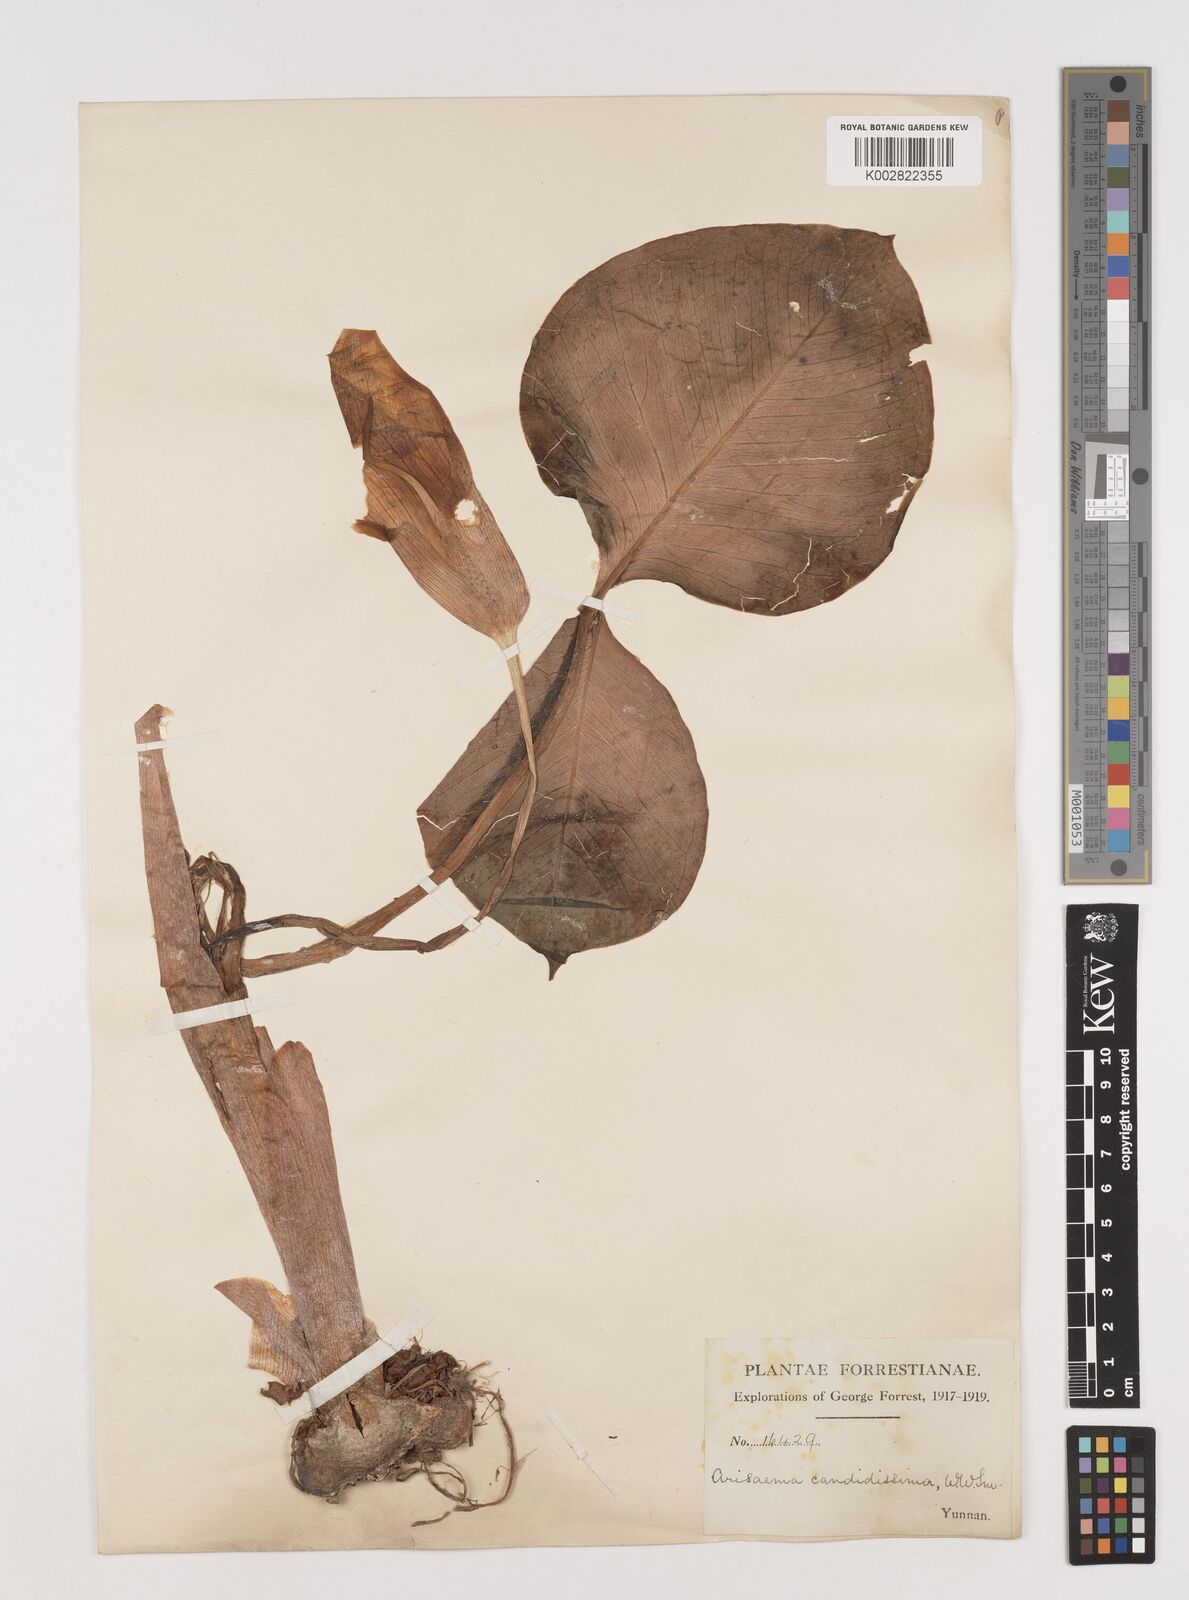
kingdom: Plantae
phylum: Tracheophyta
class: Liliopsida
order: Alismatales
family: Araceae
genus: Arisaema
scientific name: Arisaema candidissimum
